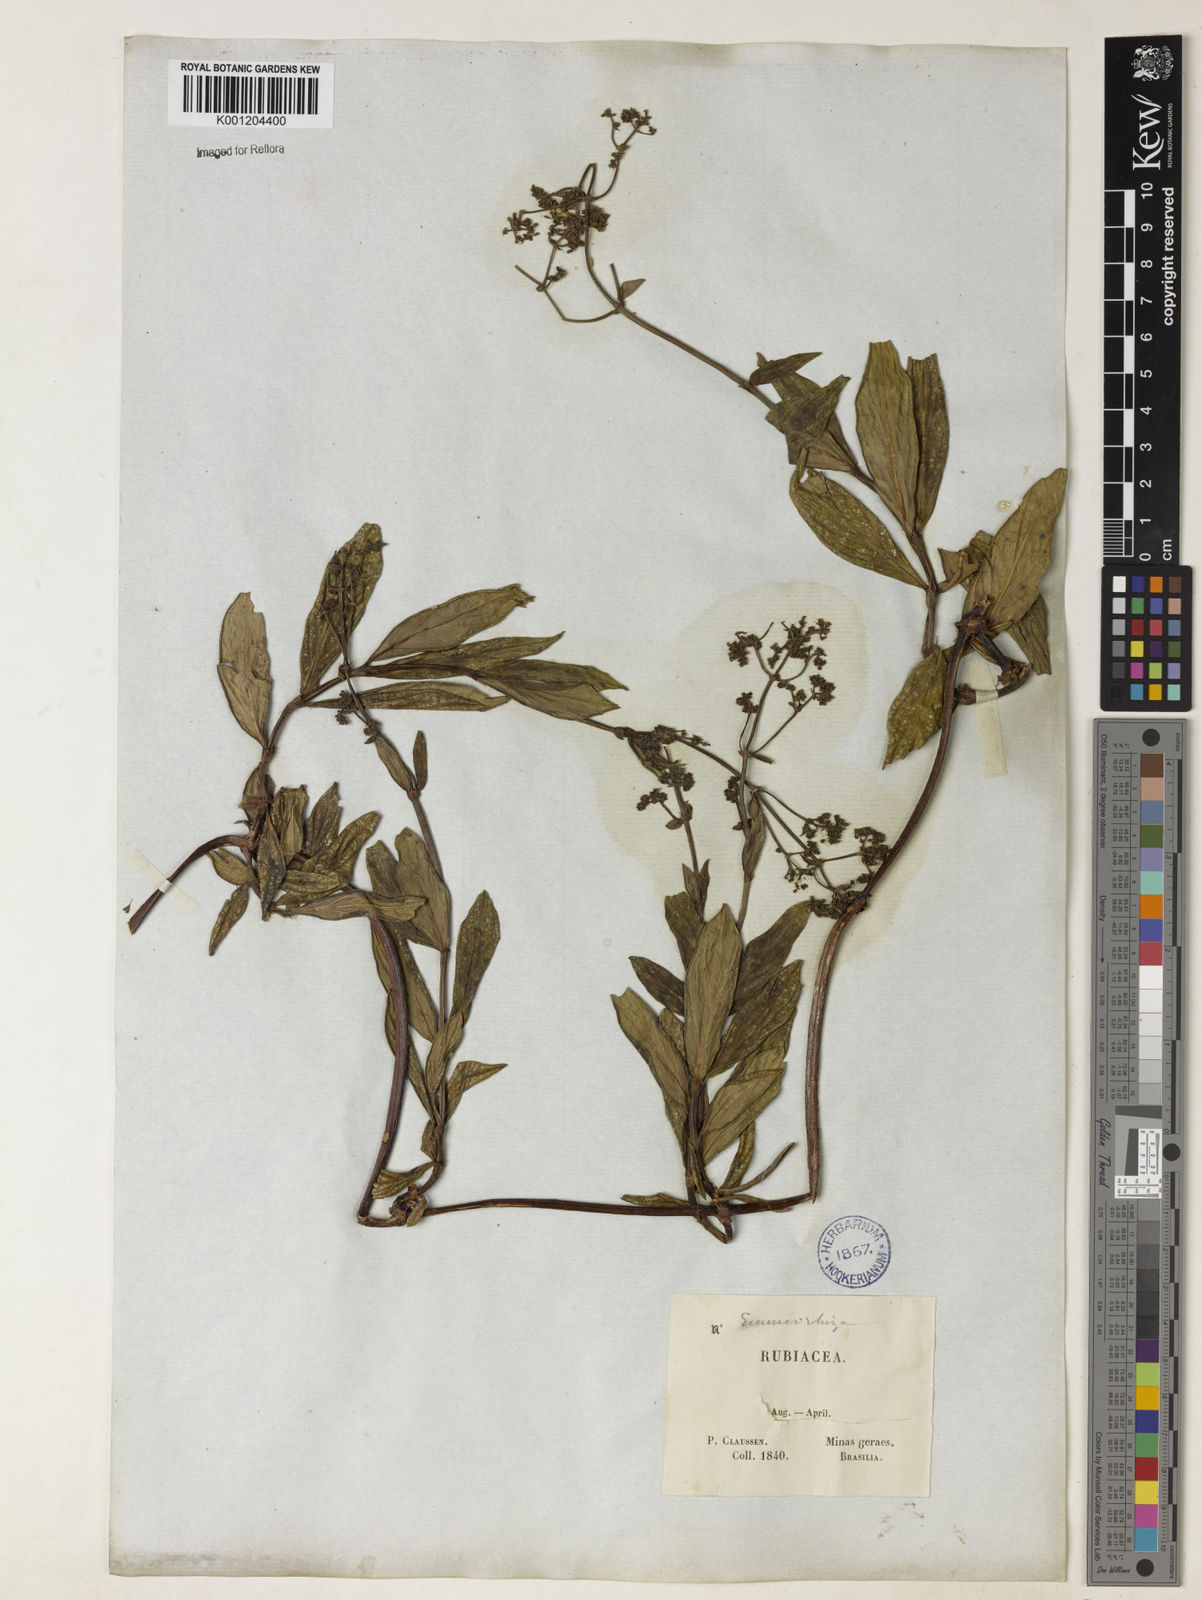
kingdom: Plantae
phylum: Tracheophyta
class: Magnoliopsida
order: Gentianales
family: Rubiaceae
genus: Emmeorhiza
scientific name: Emmeorhiza
